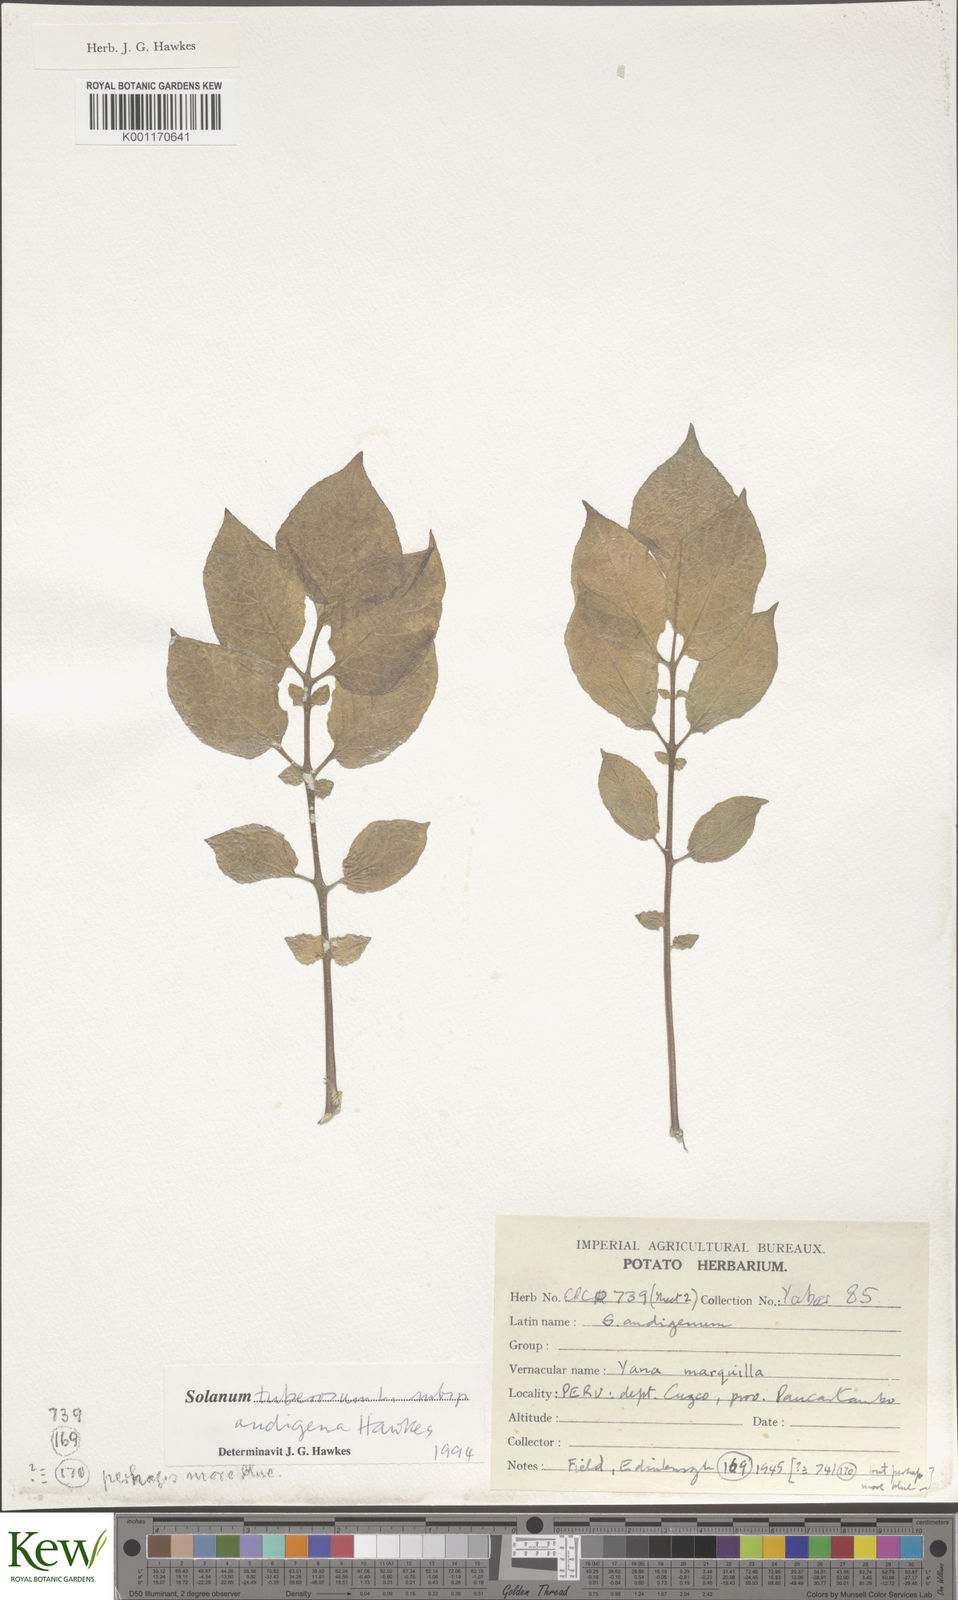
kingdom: Plantae
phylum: Tracheophyta
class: Magnoliopsida
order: Solanales
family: Solanaceae
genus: Solanum
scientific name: Solanum tuberosum
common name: Potato
